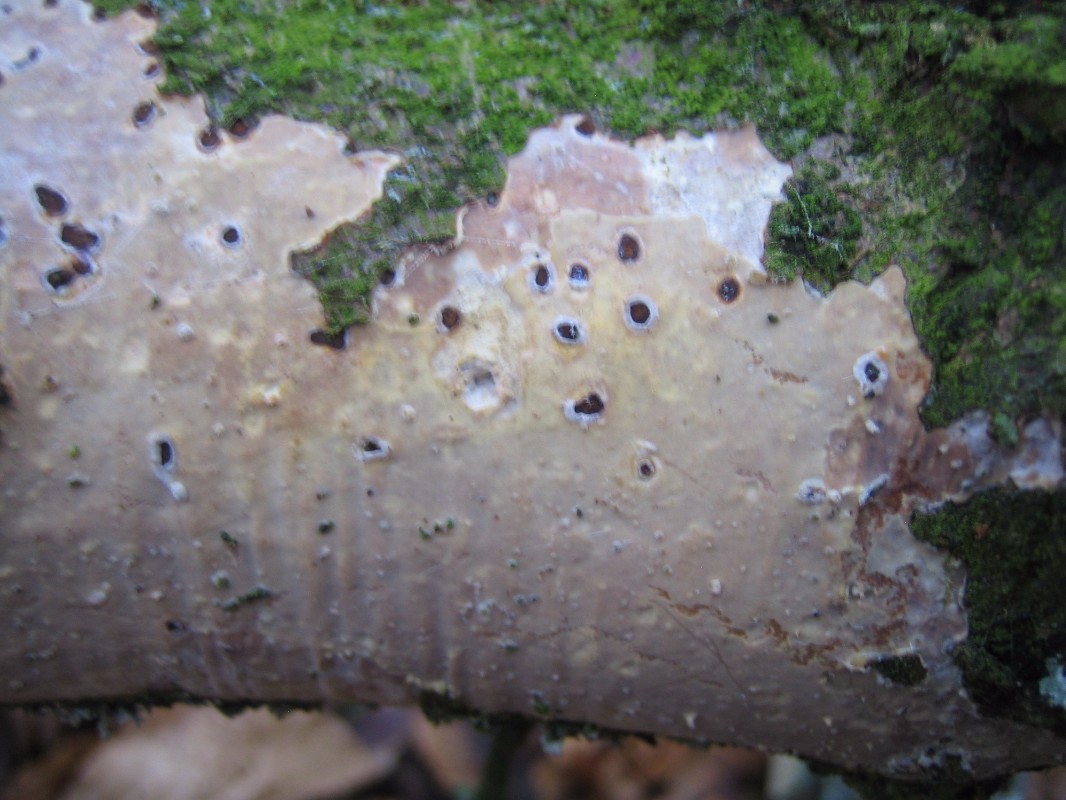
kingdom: Fungi
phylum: Basidiomycota
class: Agaricomycetes
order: Corticiales
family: Vuilleminiaceae
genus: Vuilleminia
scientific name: Vuilleminia comedens
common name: almindelig barksprænger
